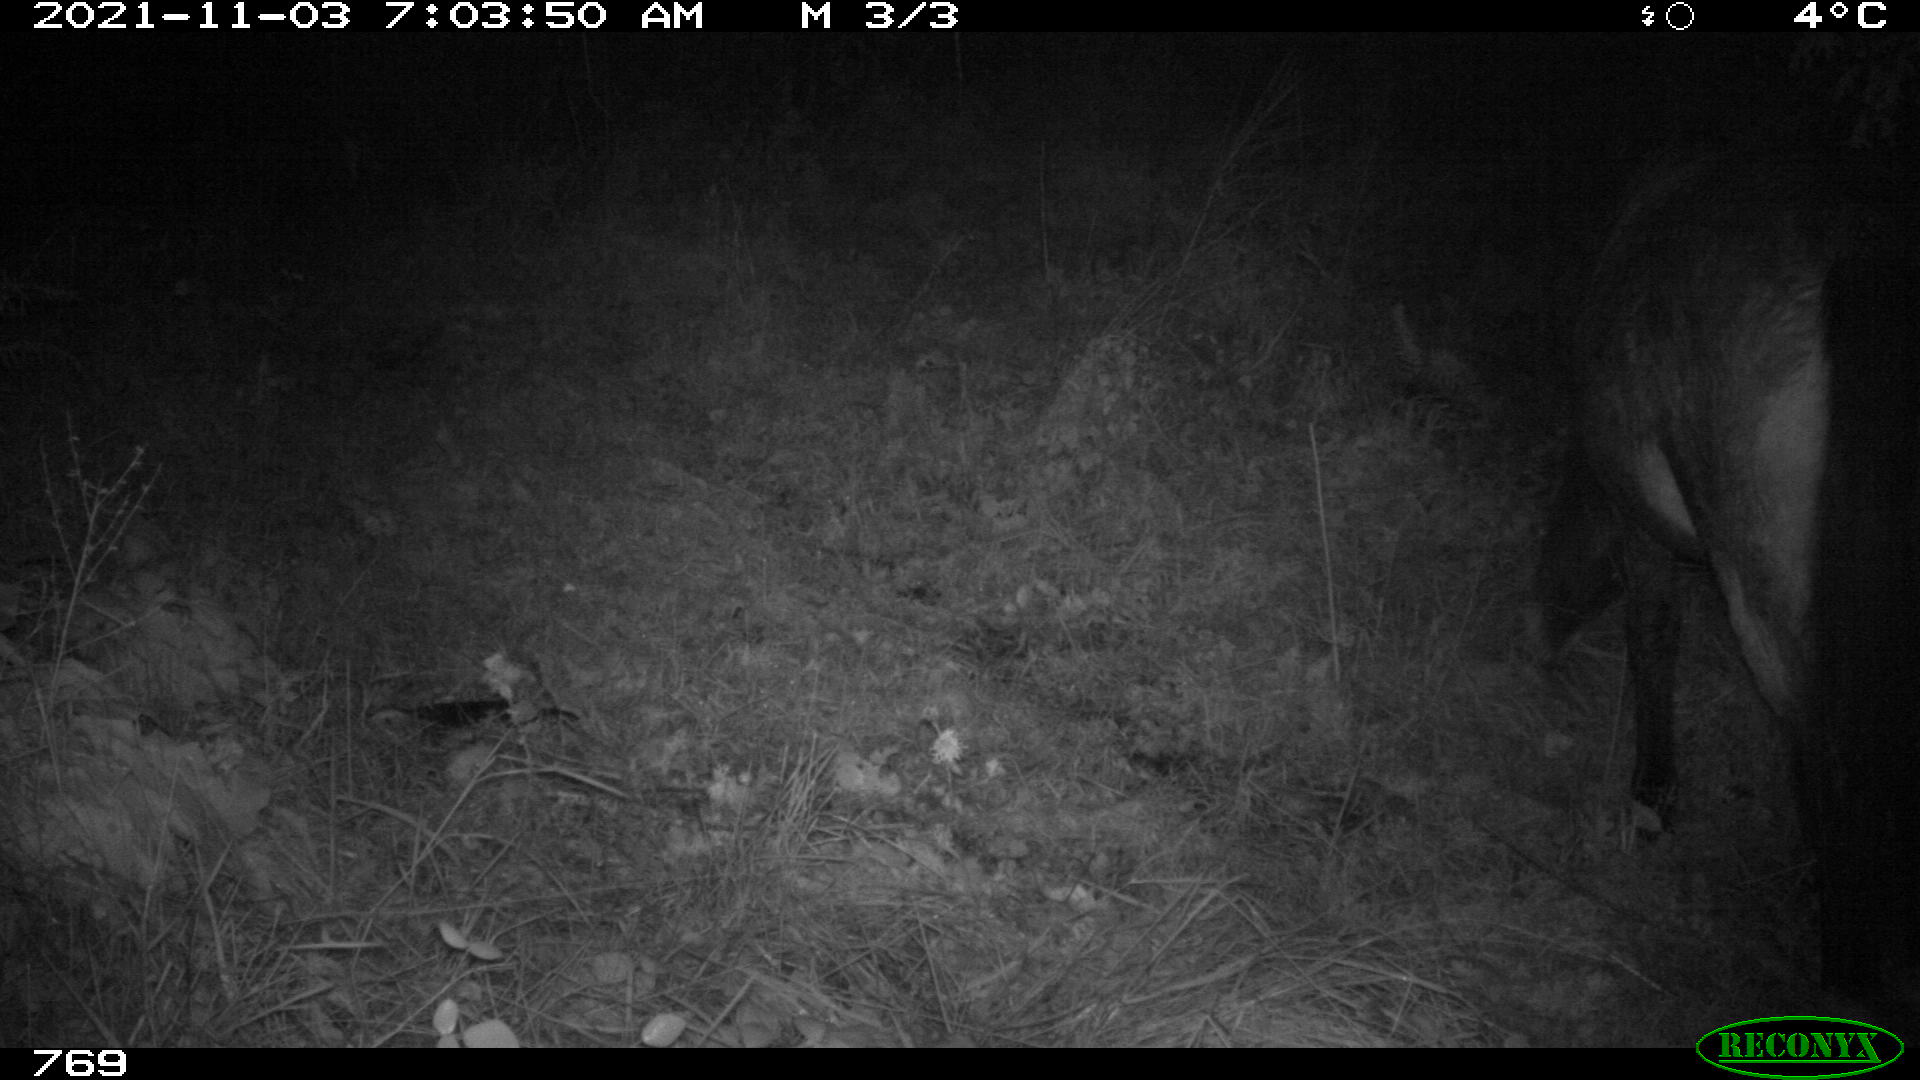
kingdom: Animalia
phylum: Chordata
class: Mammalia
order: Perissodactyla
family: Equidae
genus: Equus
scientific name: Equus caballus
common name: Horse
